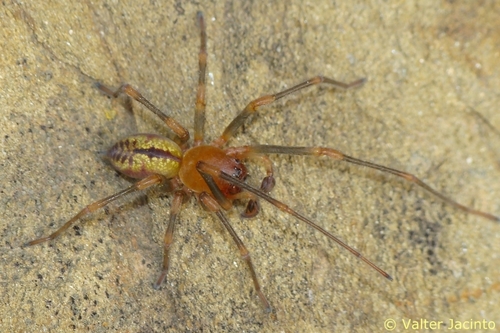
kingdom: Animalia
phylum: Arthropoda
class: Arachnida
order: Araneae
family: Cheiracanthiidae
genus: Cheiracanthium
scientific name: Cheiracanthium
